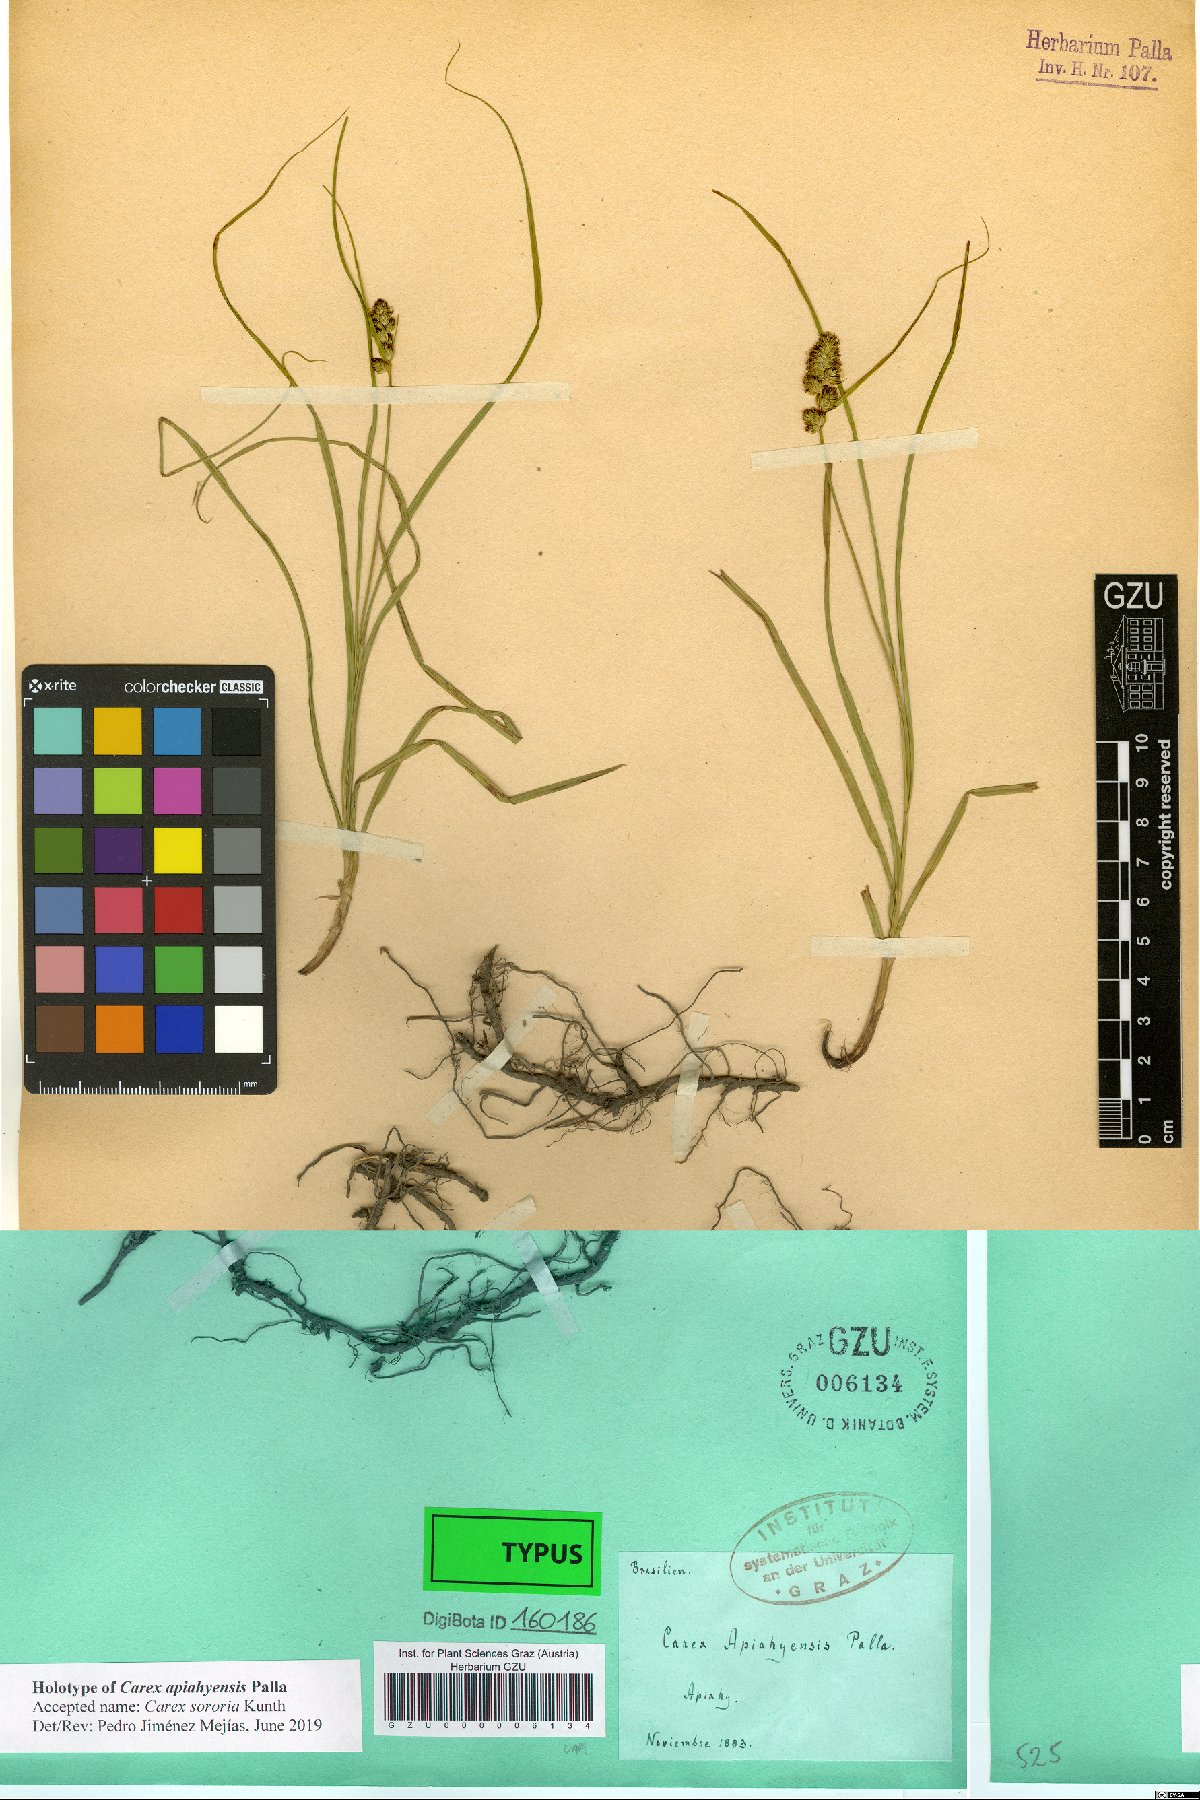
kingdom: Plantae
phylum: Tracheophyta
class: Liliopsida
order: Poales
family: Cyperaceae
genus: Carex
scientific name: Carex sororia
